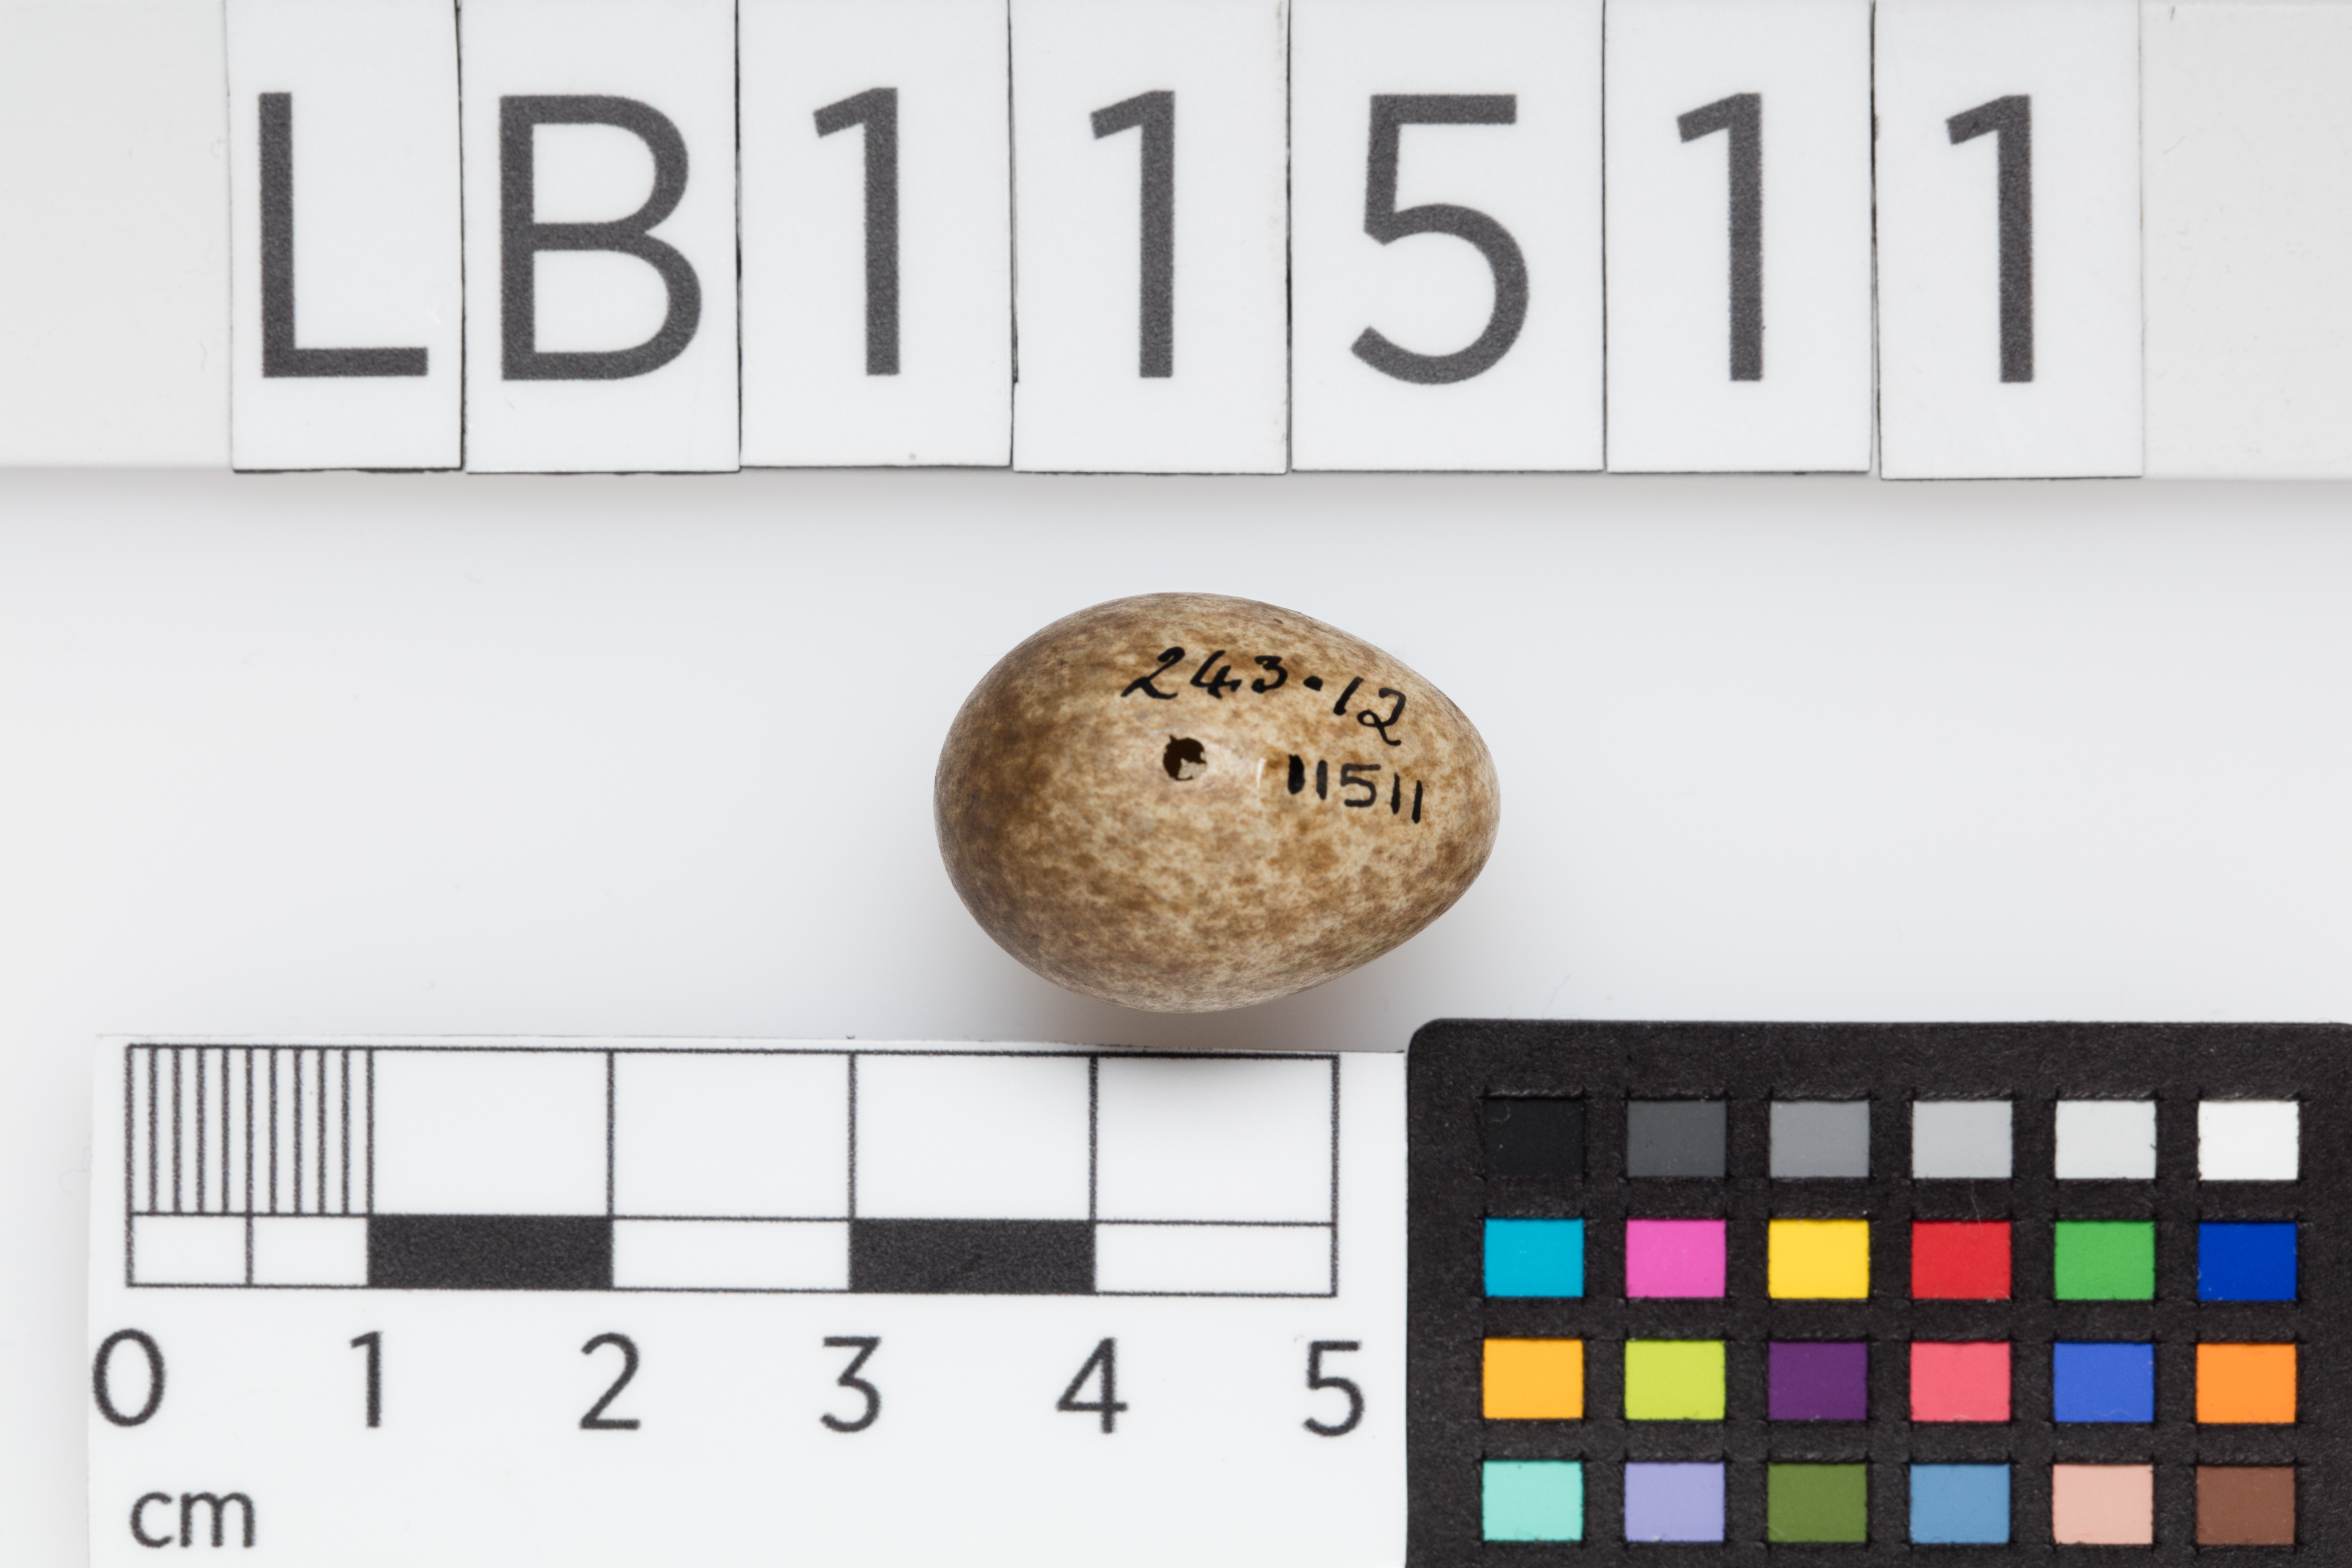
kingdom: Animalia
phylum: Chordata
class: Aves
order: Passeriformes
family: Alaudidae
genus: Alauda
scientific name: Alauda arvensis
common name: Eurasian skylark
